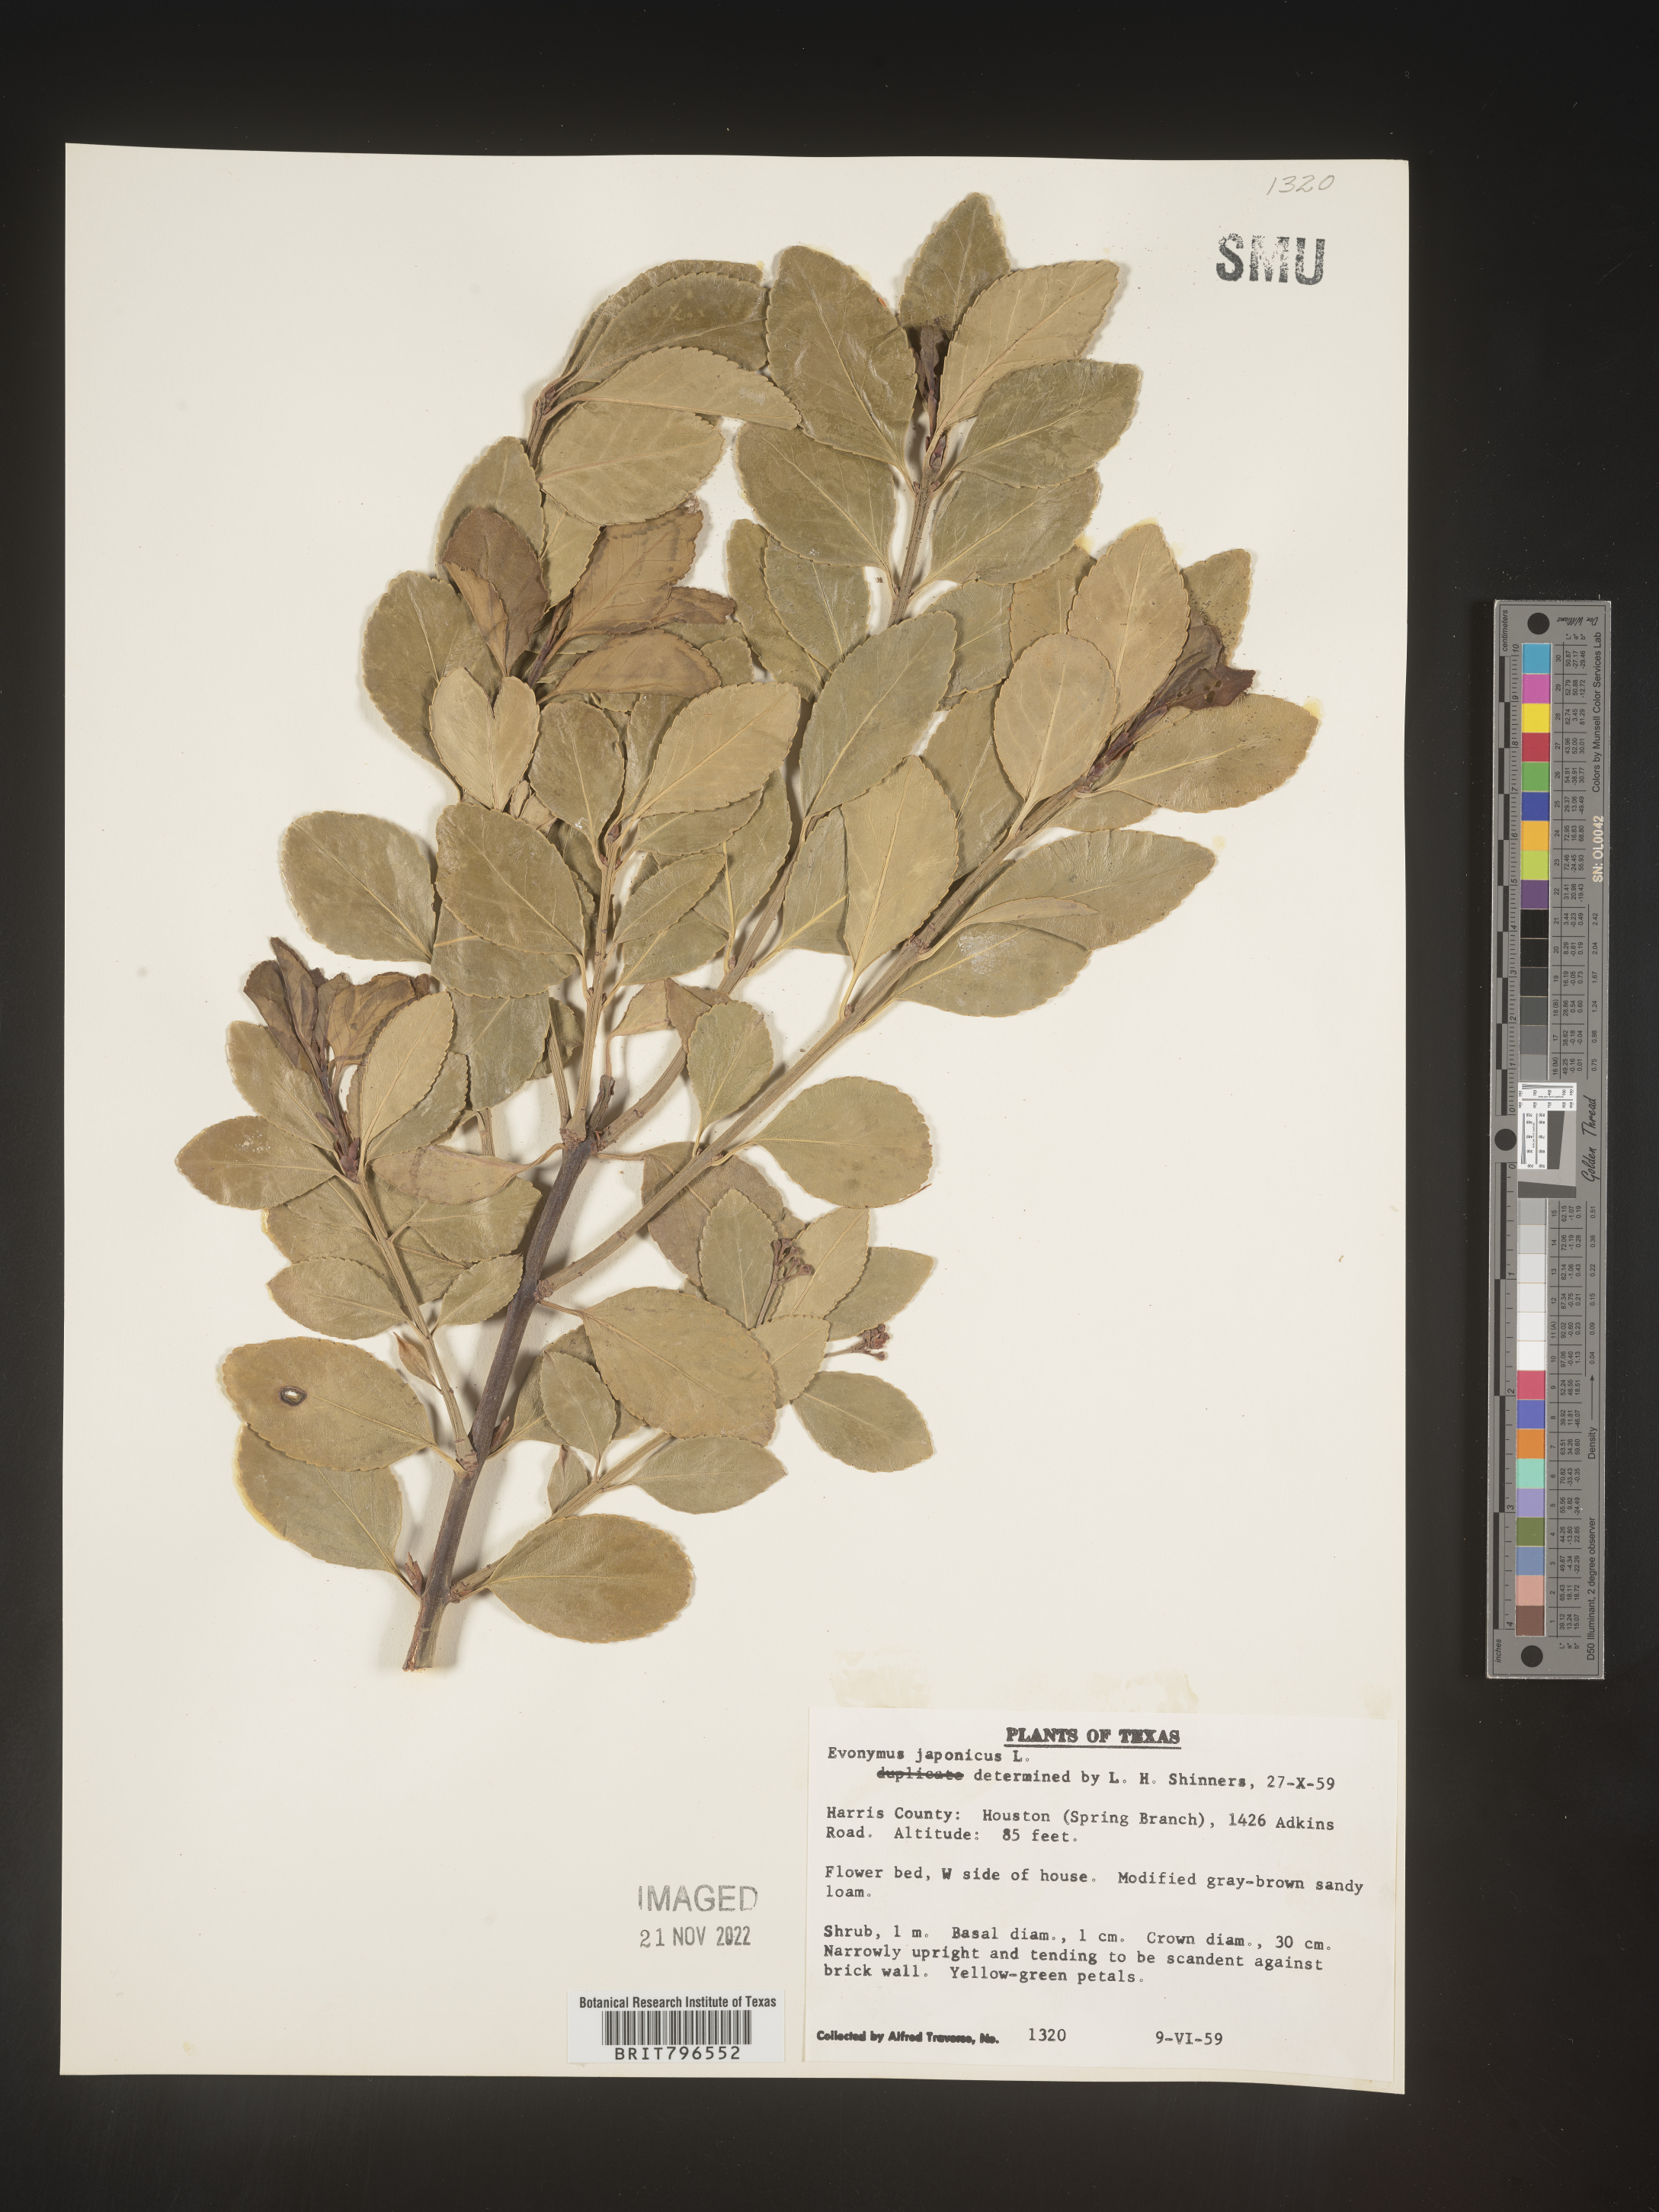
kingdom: Plantae
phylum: Tracheophyta
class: Magnoliopsida
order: Celastrales
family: Celastraceae
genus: Euonymus
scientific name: Euonymus
